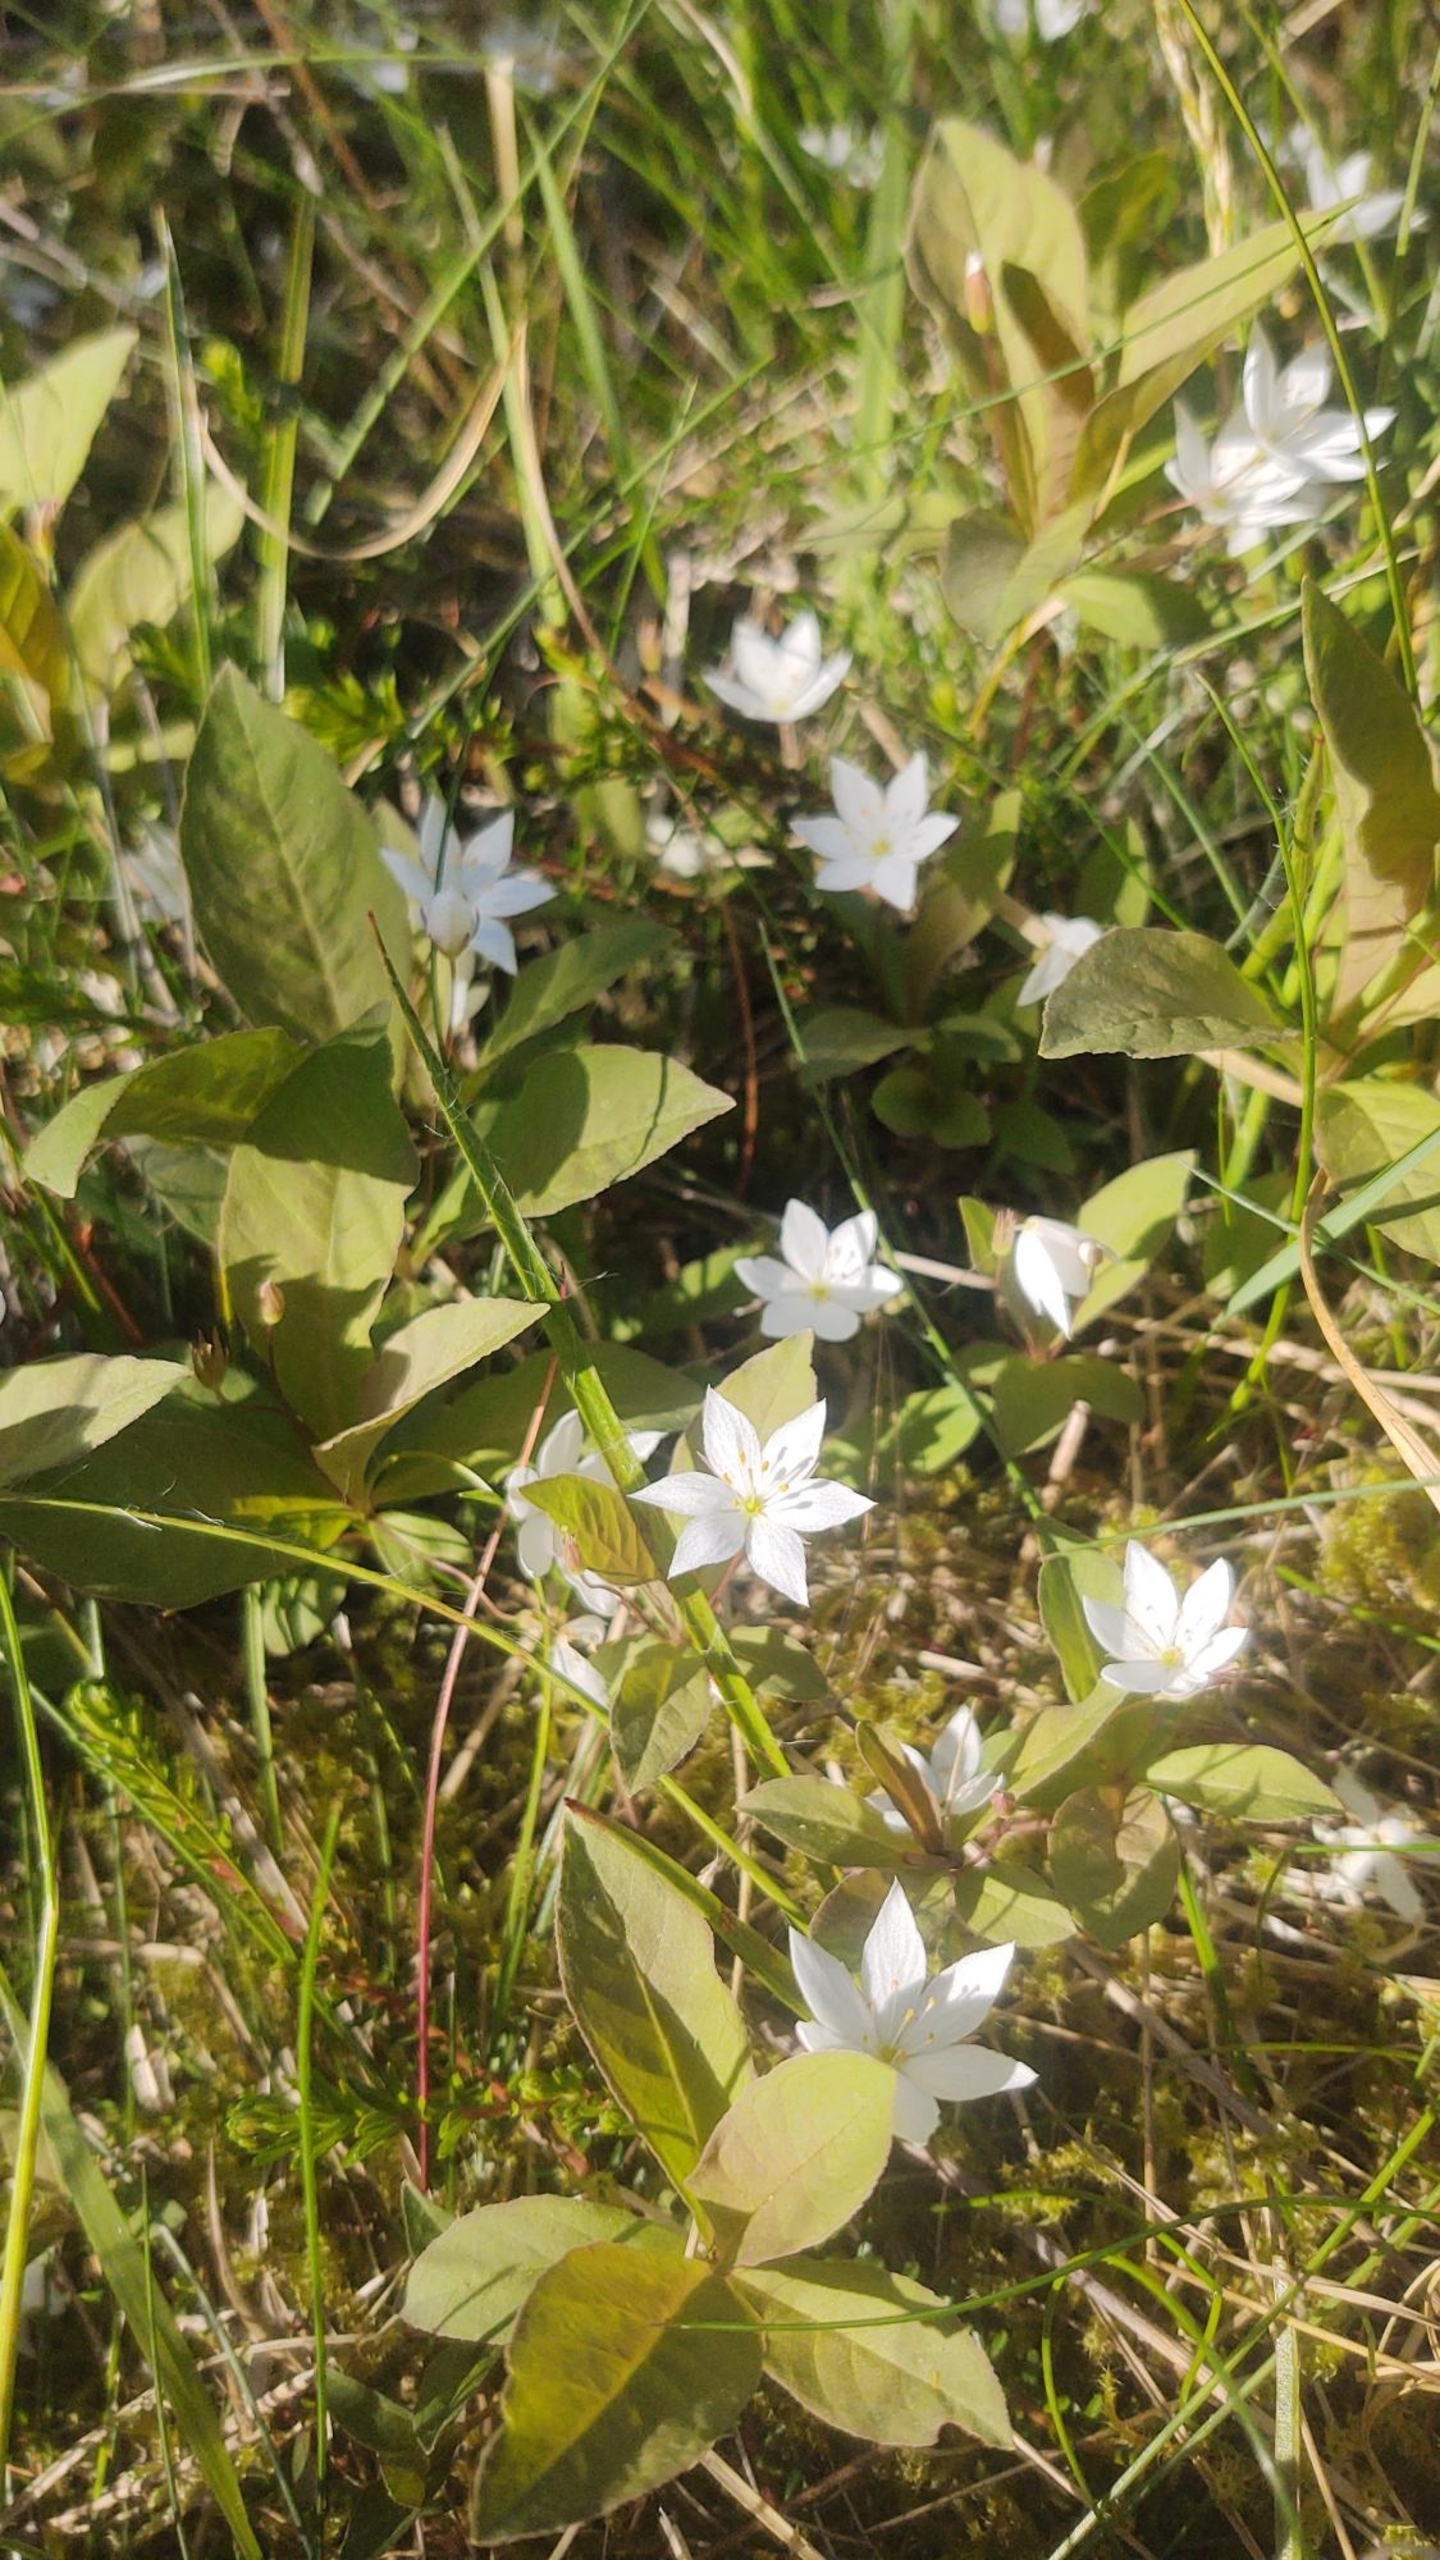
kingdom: Plantae
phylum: Tracheophyta
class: Magnoliopsida
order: Ericales
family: Primulaceae
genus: Lysimachia
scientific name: Lysimachia europaea
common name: Skovstjerne
